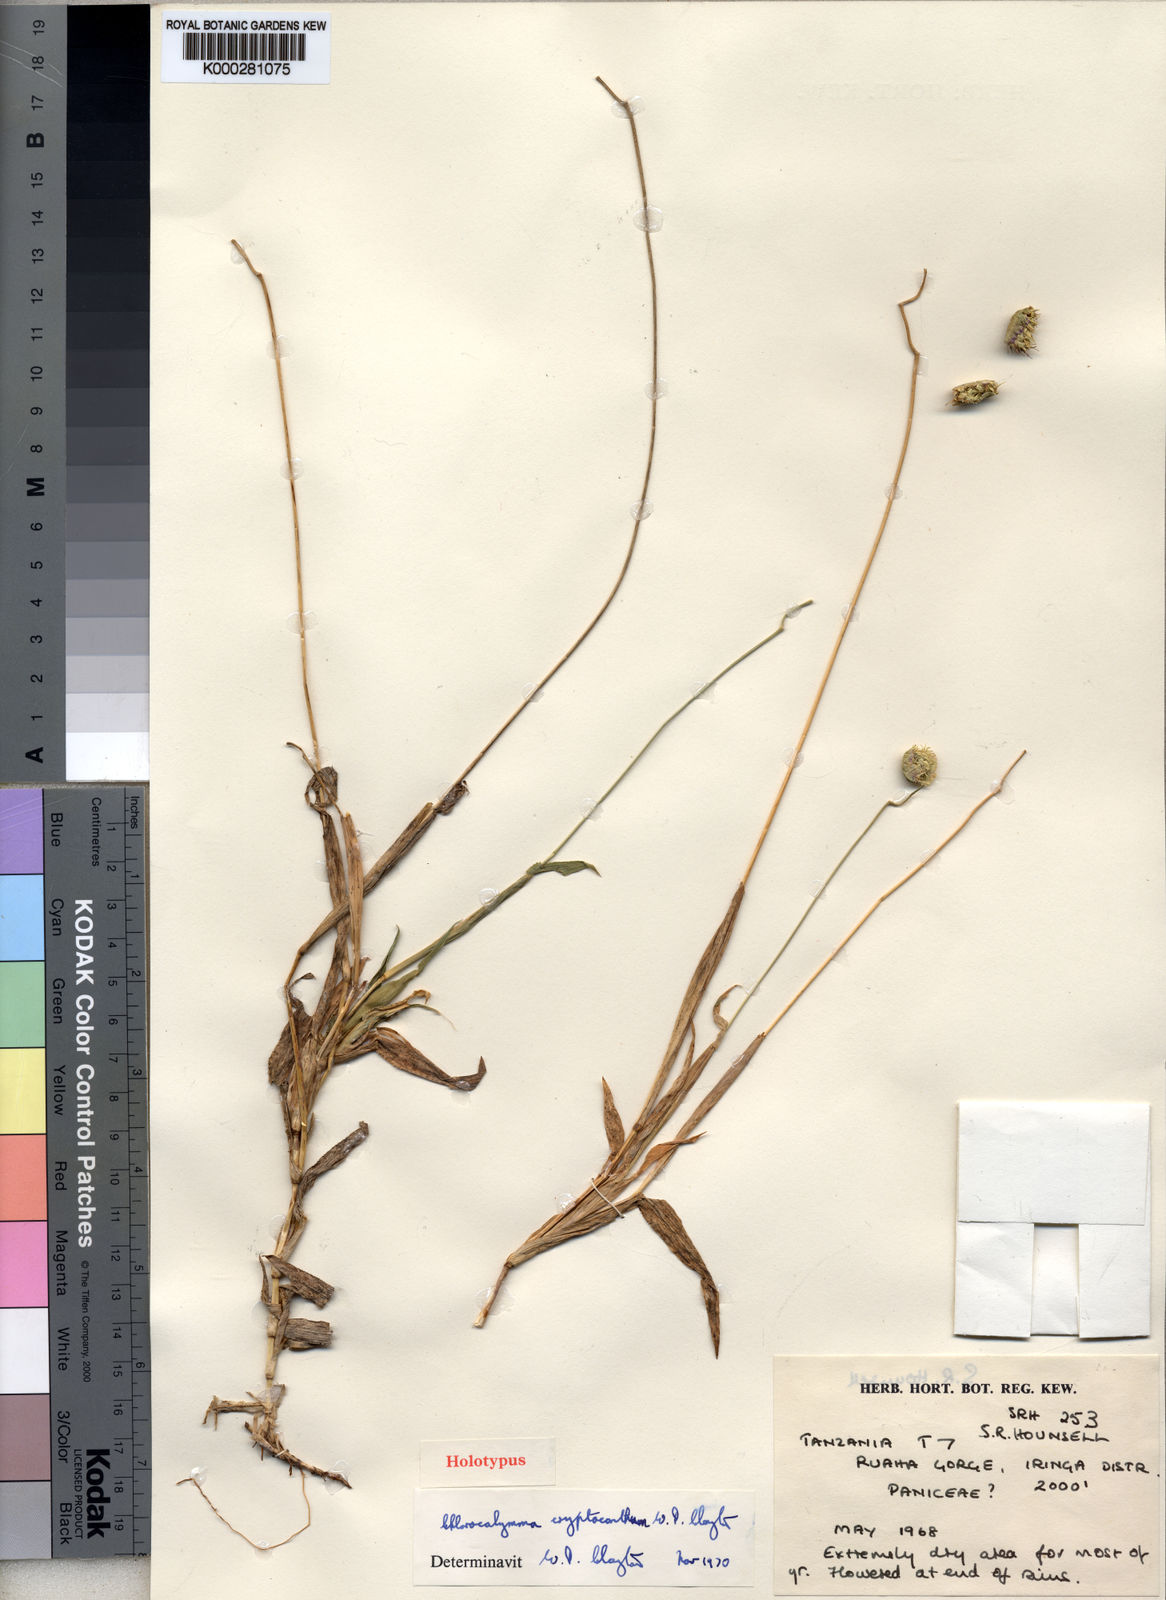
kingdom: Plantae
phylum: Tracheophyta
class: Liliopsida
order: Poales
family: Poaceae
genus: Chlorocalymma
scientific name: Chlorocalymma cryptacanthum
